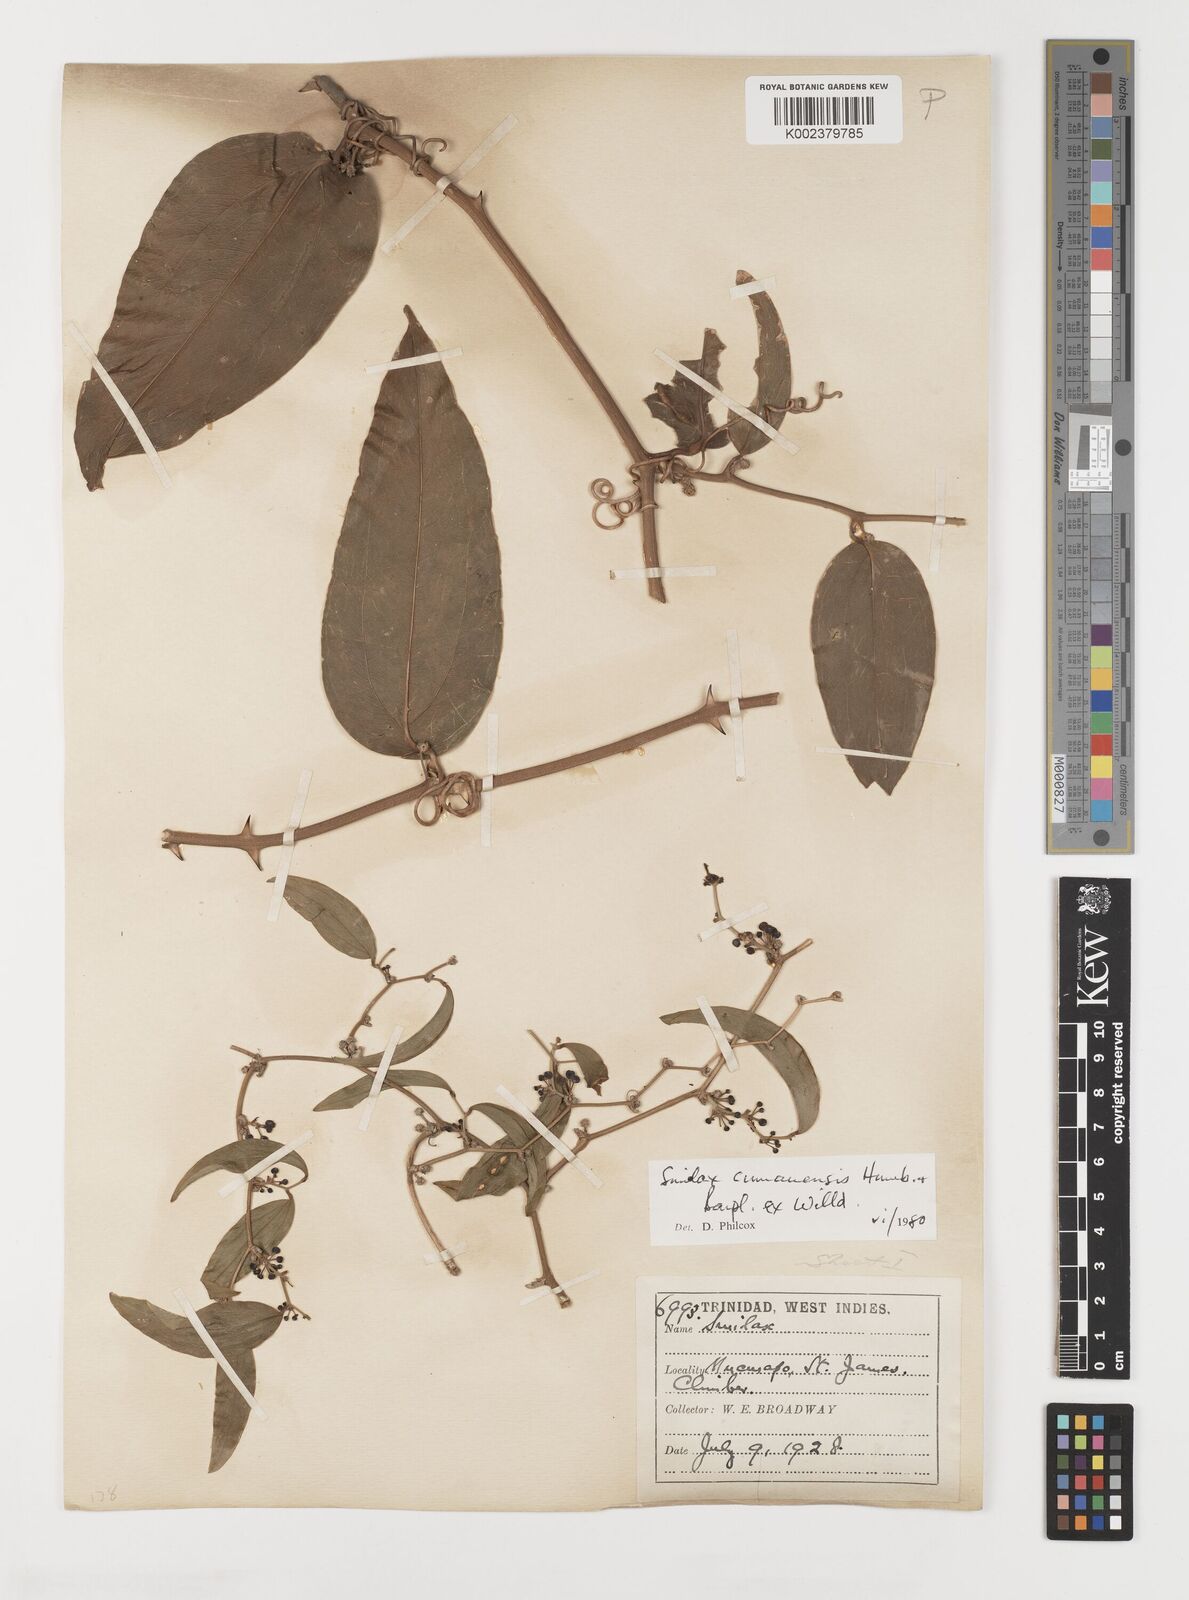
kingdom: Plantae
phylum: Tracheophyta
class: Liliopsida
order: Liliales
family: Smilacaceae
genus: Smilax
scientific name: Smilax oblongata
